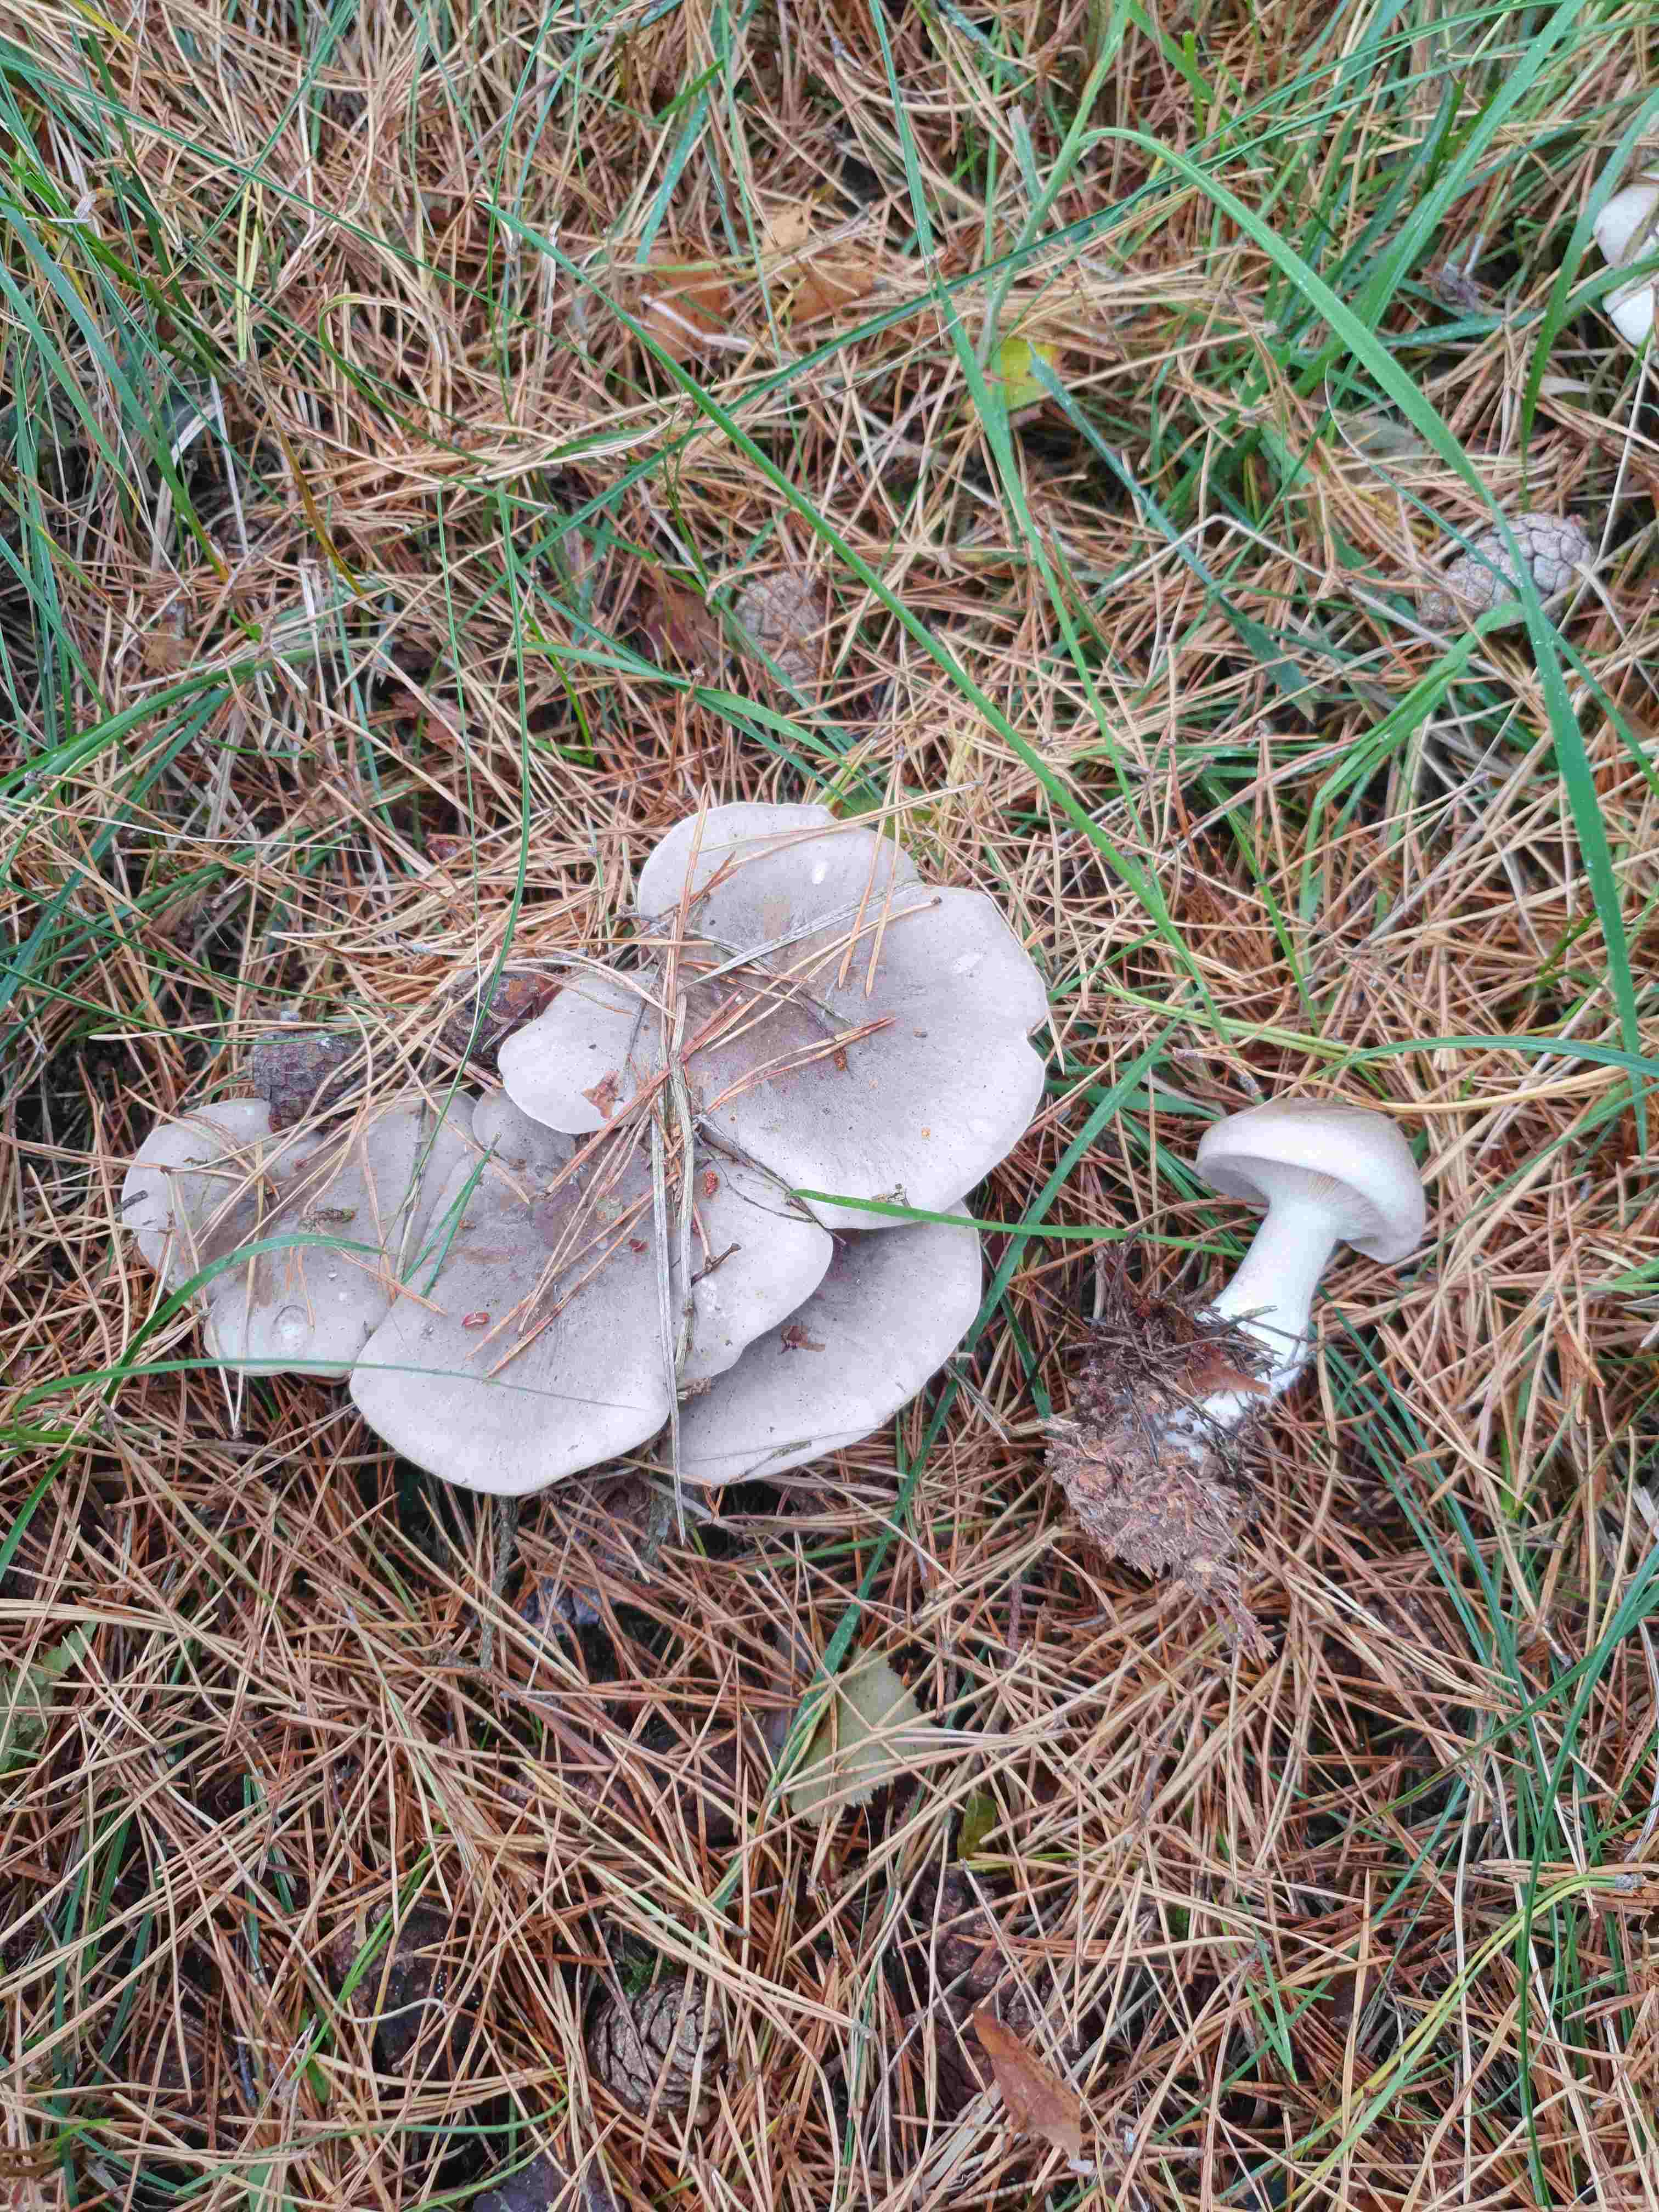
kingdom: Fungi
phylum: Basidiomycota
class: Agaricomycetes
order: Agaricales
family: Tricholomataceae
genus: Clitocybe
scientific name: Clitocybe nebularis
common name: tåge-tragthat
